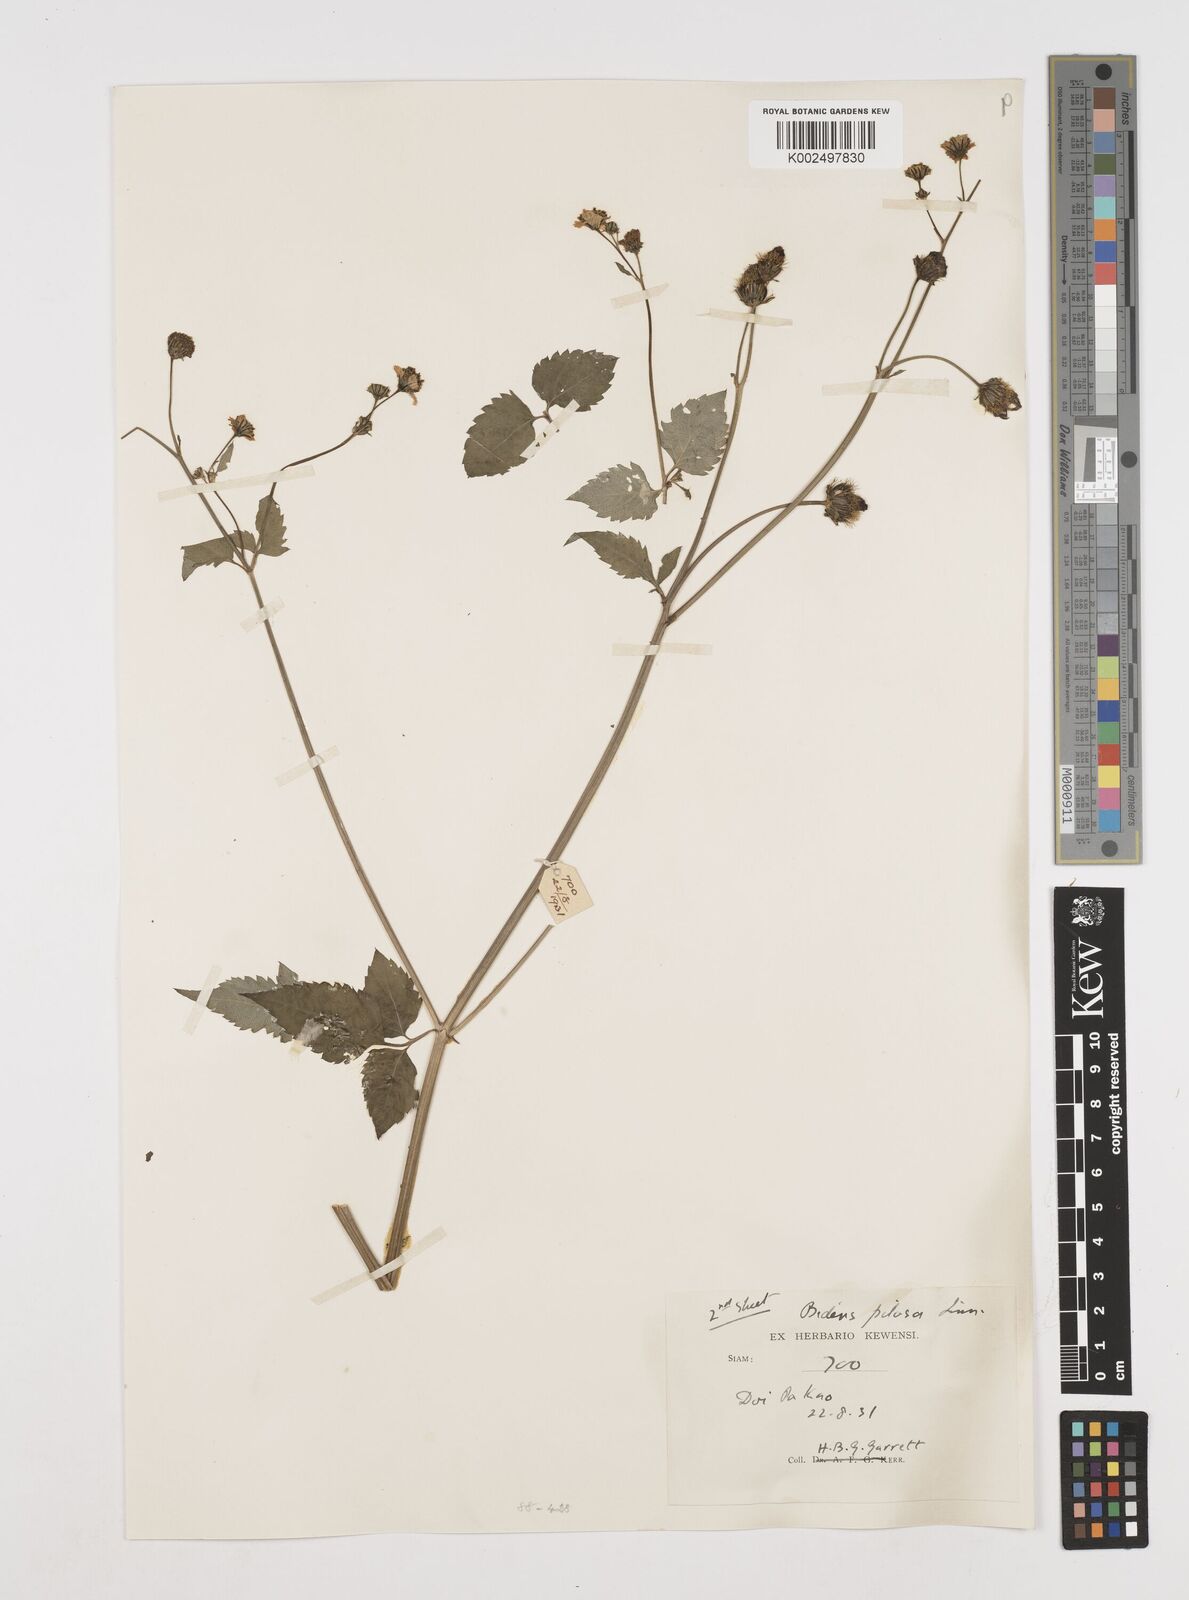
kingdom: Plantae
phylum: Tracheophyta
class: Magnoliopsida
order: Asterales
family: Asteraceae
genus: Bidens
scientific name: Bidens pilosa
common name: Black-jack
